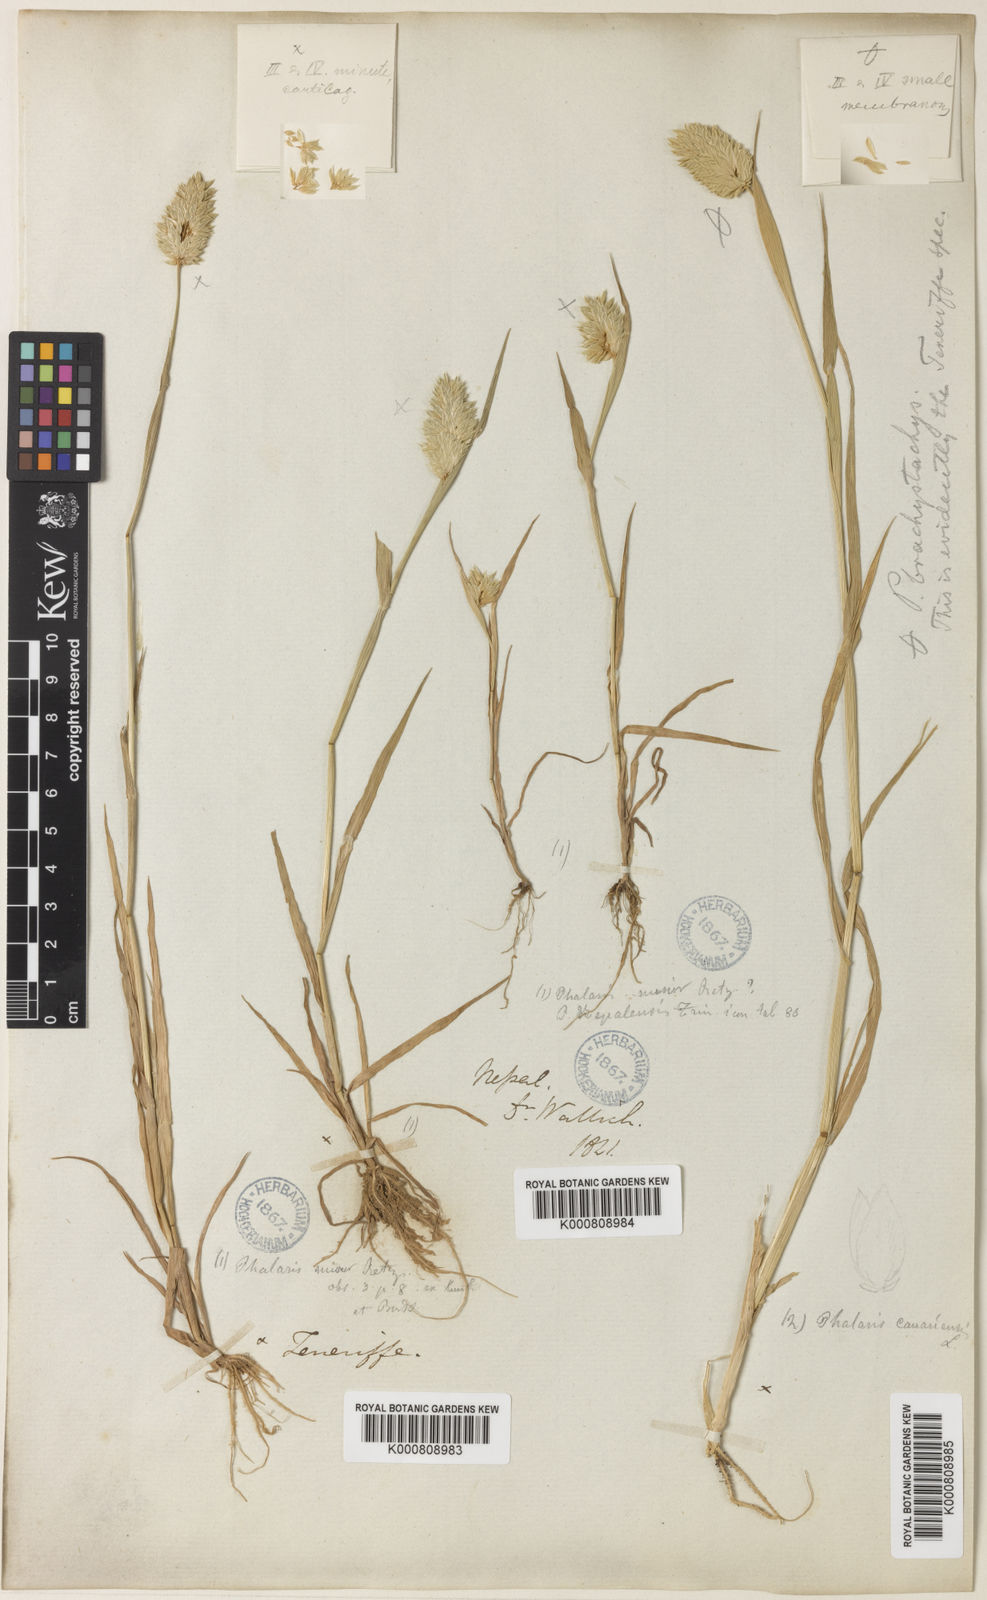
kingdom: Plantae
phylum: Tracheophyta
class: Liliopsida
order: Poales
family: Poaceae
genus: Phalaris
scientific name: Phalaris minor
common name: Littleseed canarygrass
